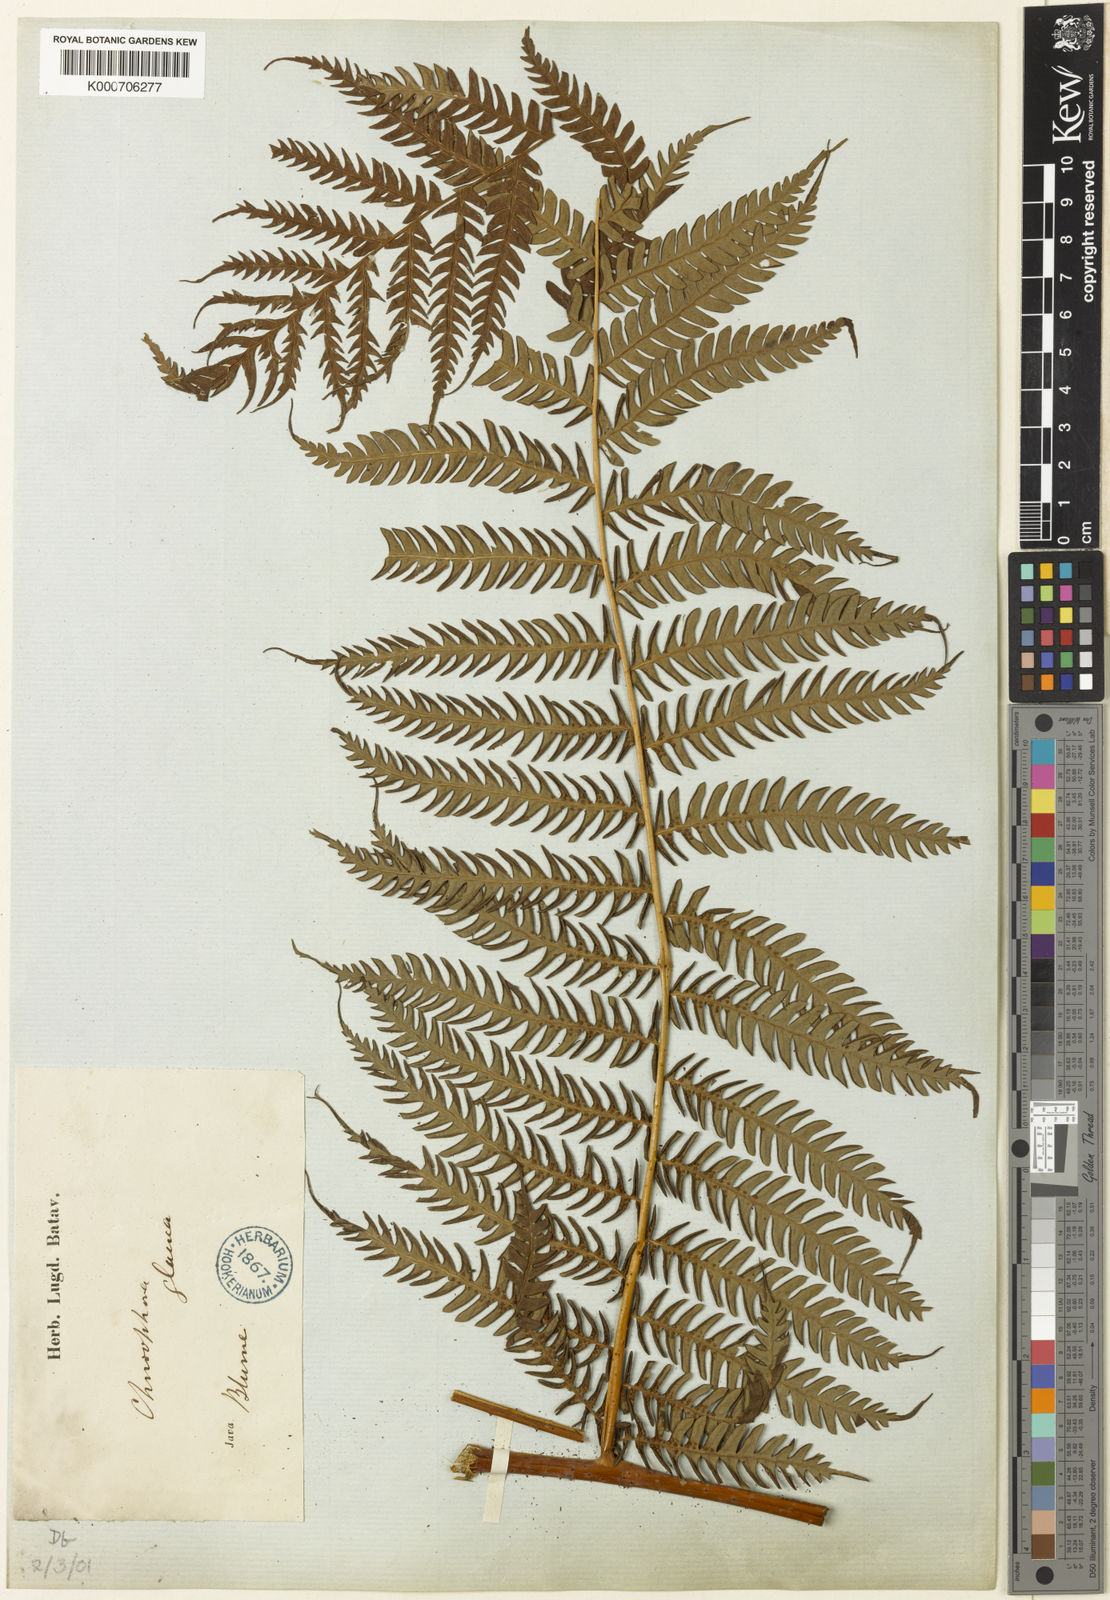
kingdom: Plantae
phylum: Tracheophyta
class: Polypodiopsida
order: Cyatheales
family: Cyatheaceae
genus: Sphaeropteris
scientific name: Sphaeropteris glauca
